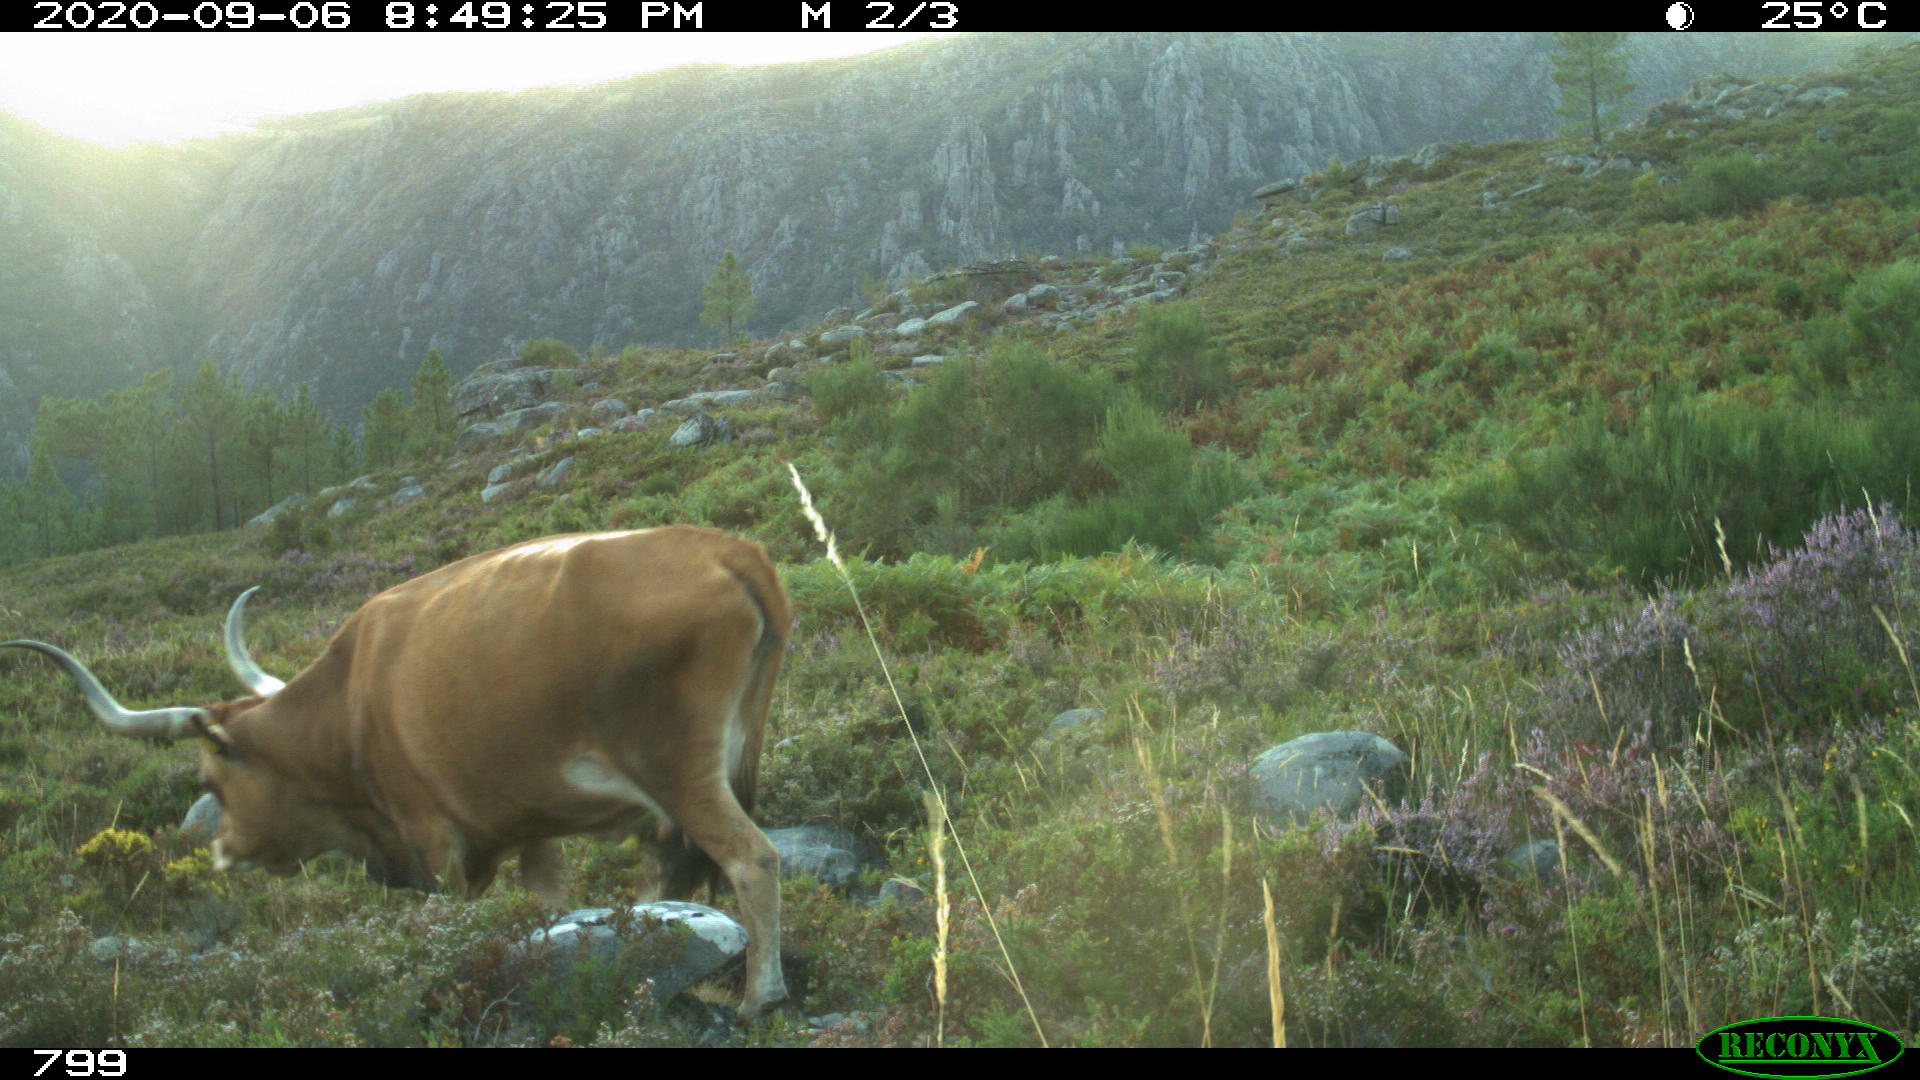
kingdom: Animalia
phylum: Chordata
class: Mammalia
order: Artiodactyla
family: Bovidae
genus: Bos
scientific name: Bos taurus
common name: Domesticated cattle
